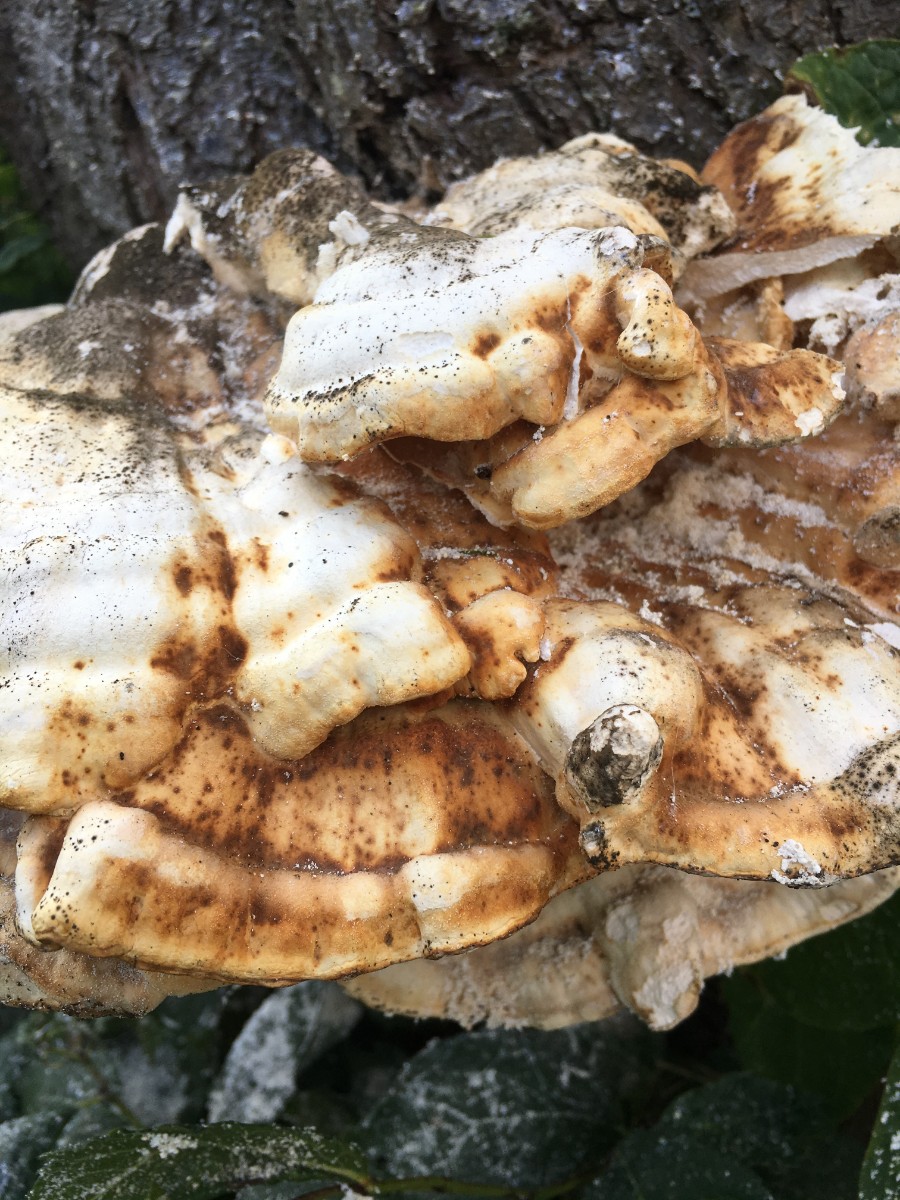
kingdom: Fungi
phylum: Basidiomycota
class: Agaricomycetes
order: Polyporales
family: Laetiporaceae
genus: Laetiporus
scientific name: Laetiporus sulphureus
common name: svovlporesvamp
